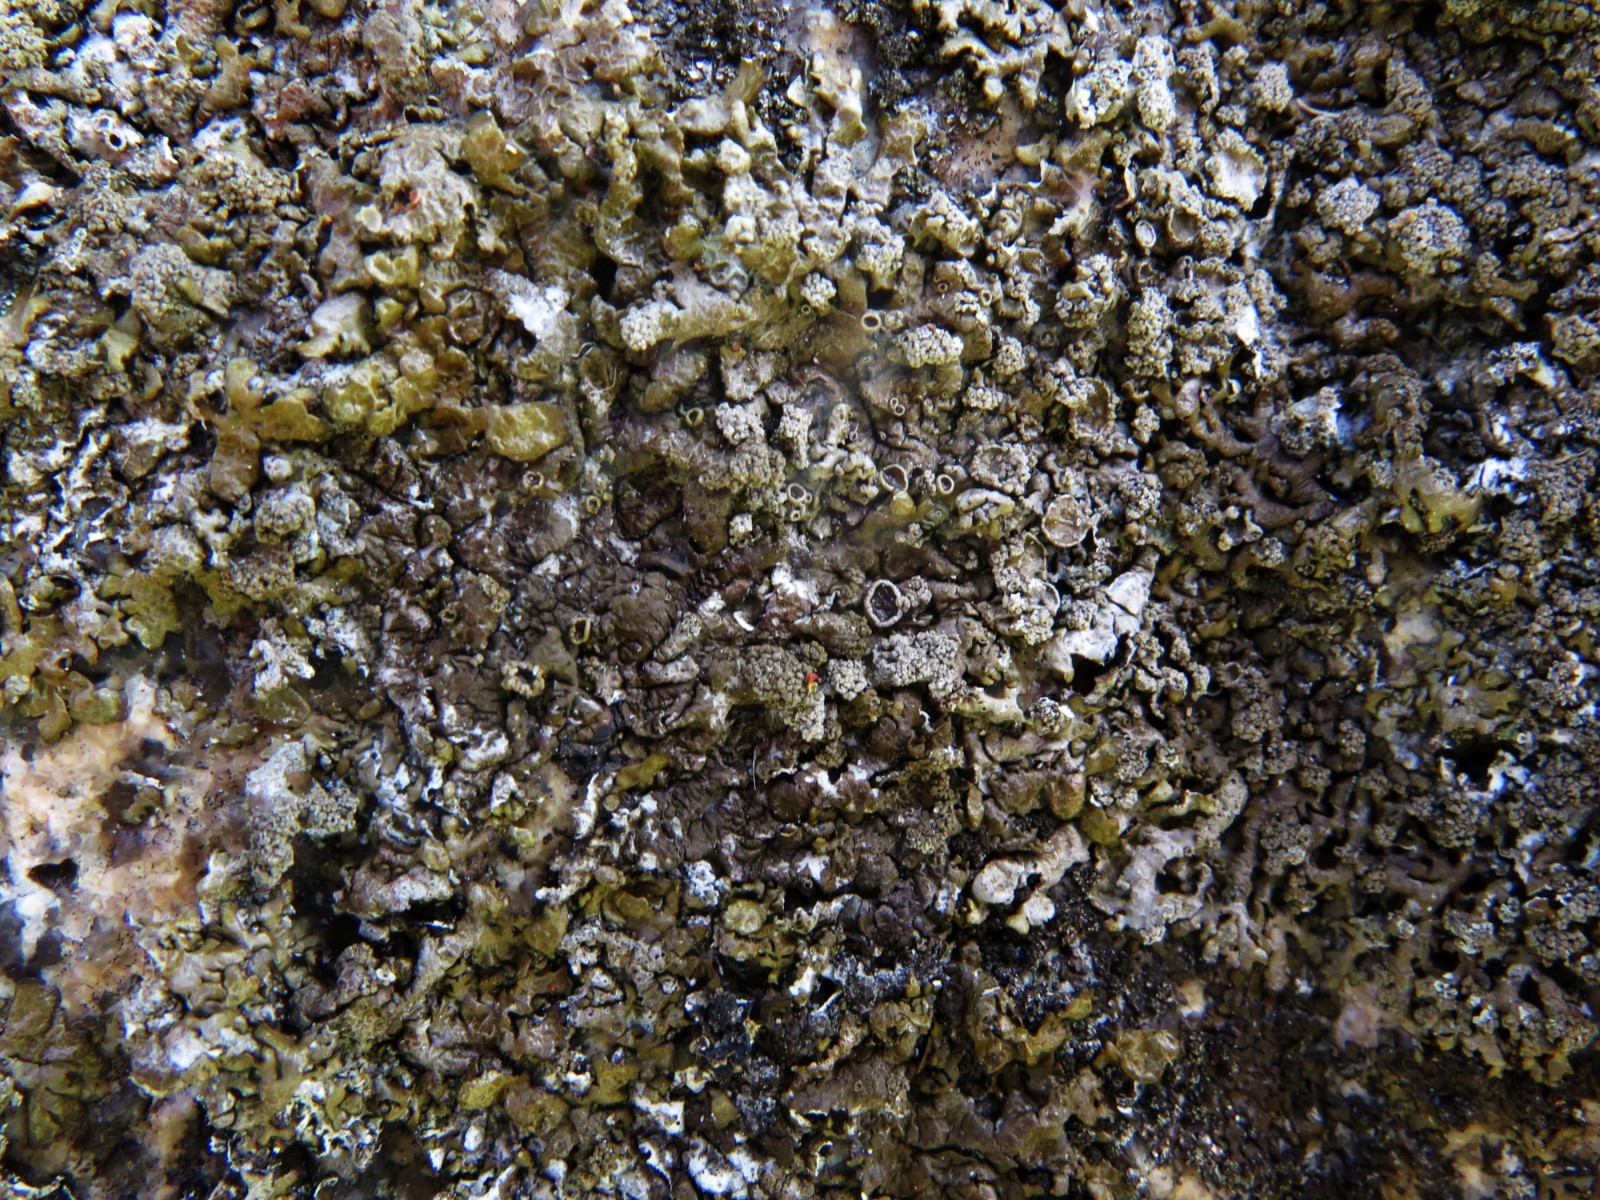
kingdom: Fungi
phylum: Ascomycota
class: Lecanoromycetes
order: Lecanorales
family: Parmeliaceae
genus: Xanthoparmelia
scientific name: Xanthoparmelia loxodes
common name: knudret skållav
